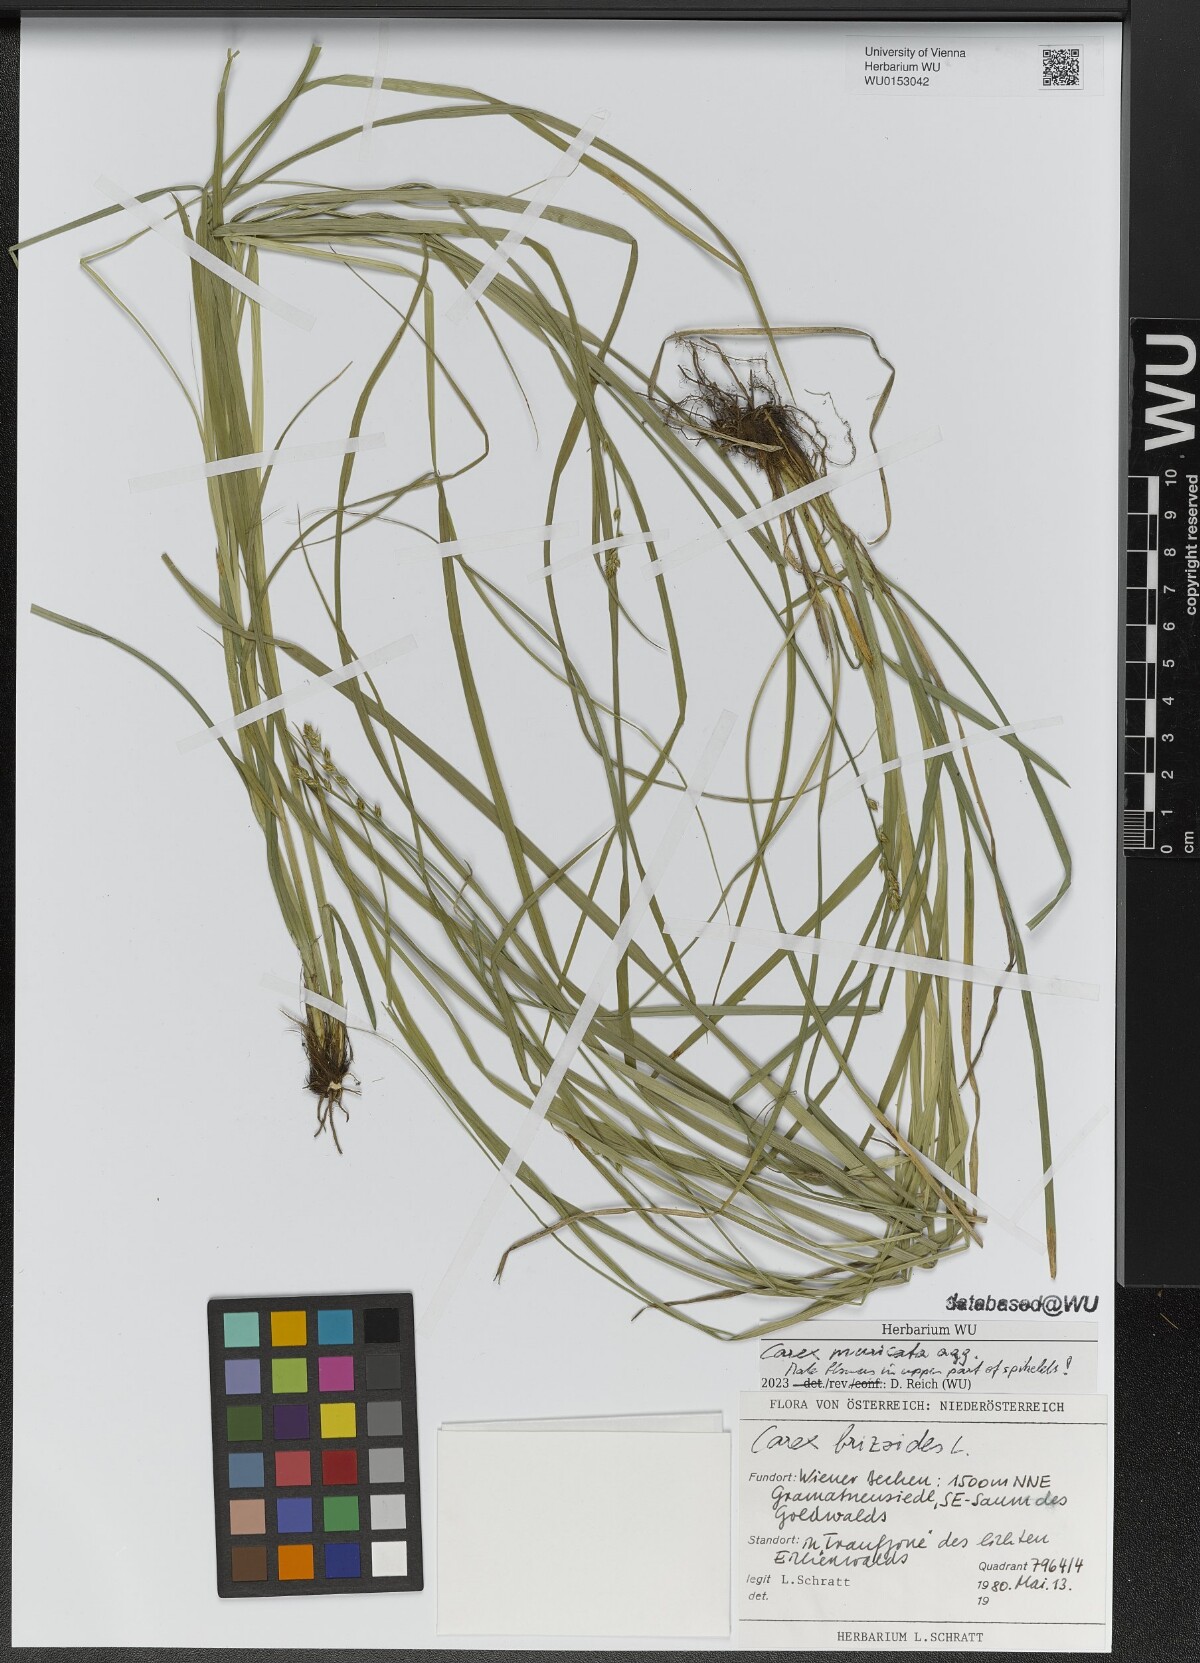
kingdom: Plantae
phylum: Tracheophyta
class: Liliopsida
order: Poales
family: Cyperaceae
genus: Carex
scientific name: Carex muricata
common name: Rough sedge
